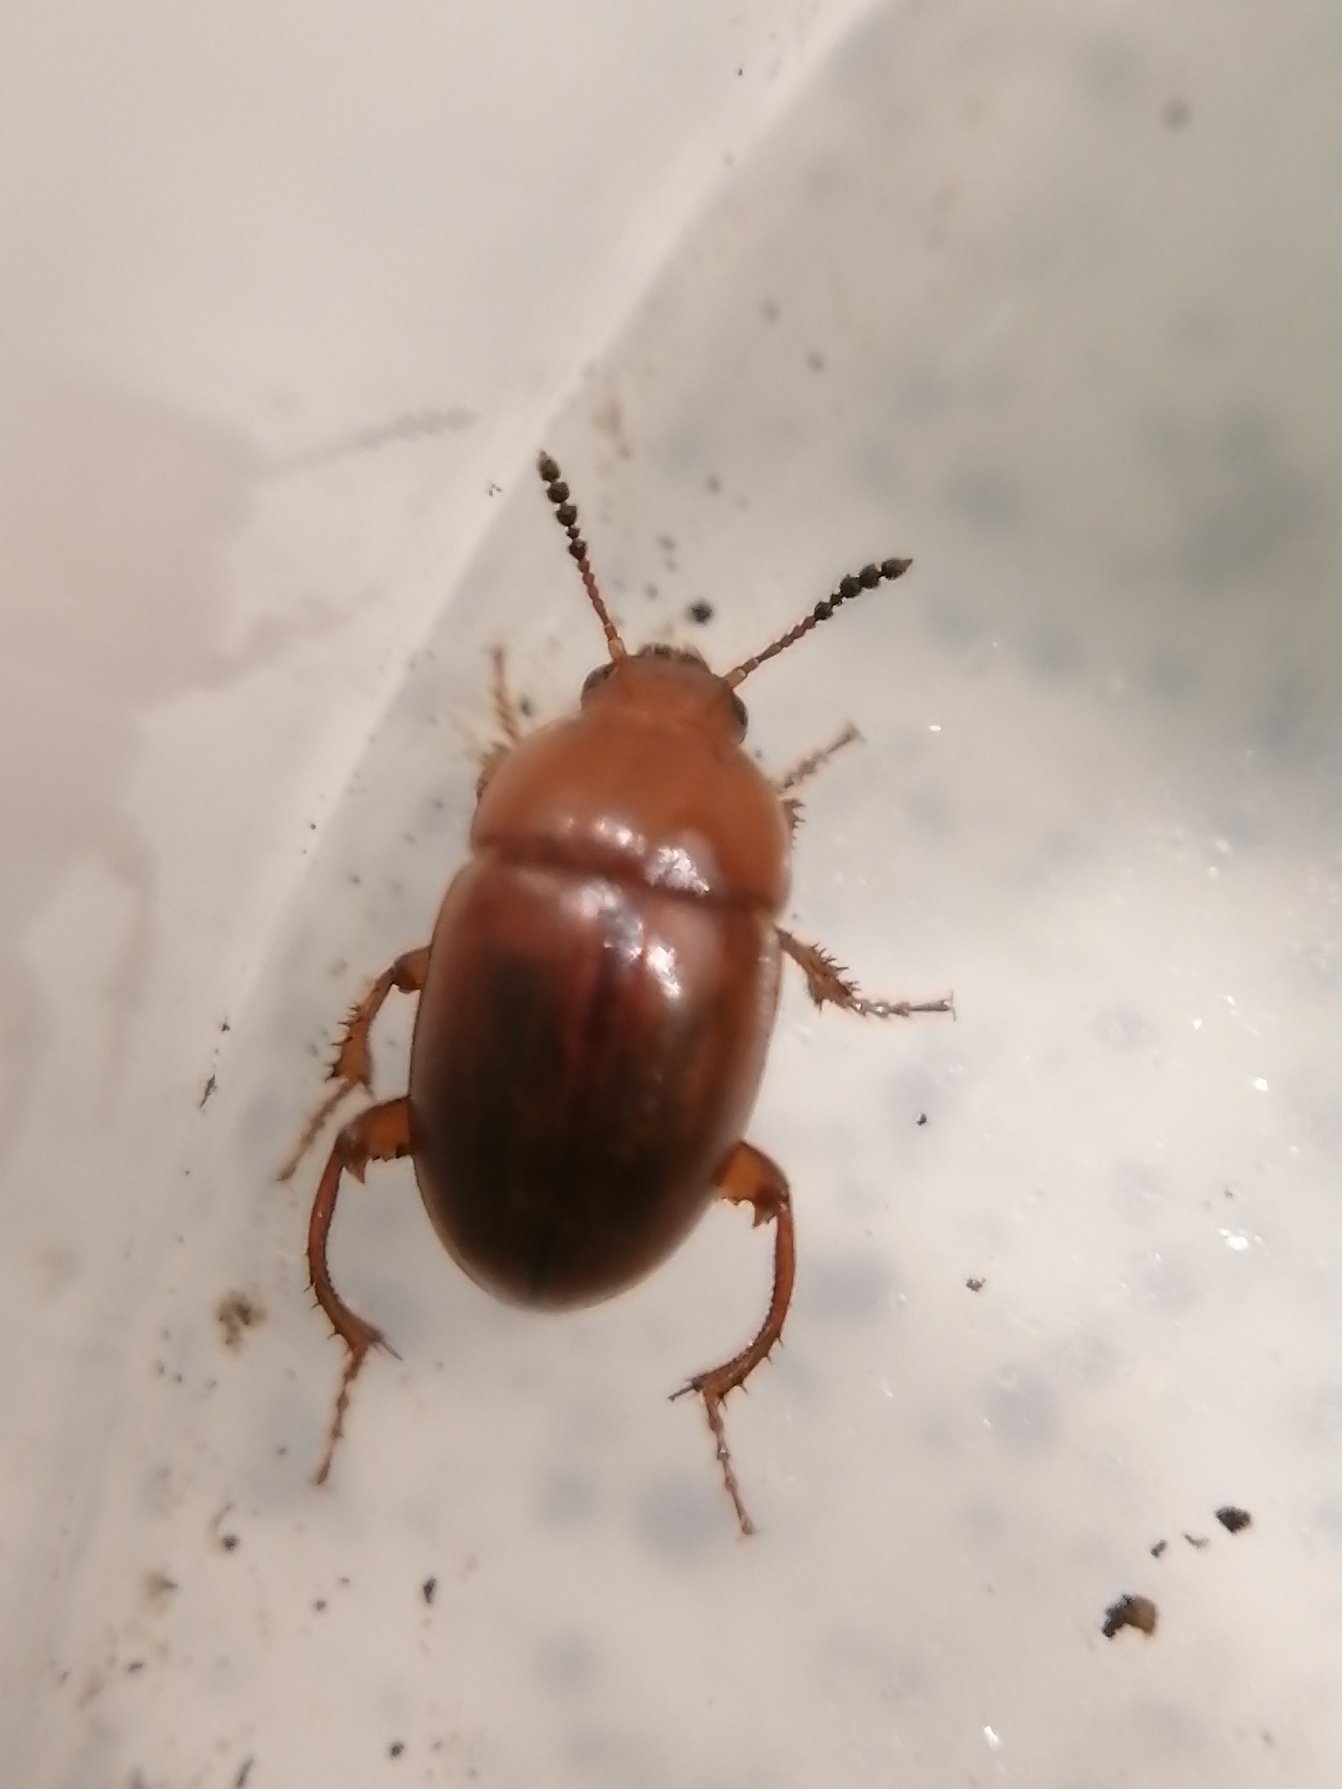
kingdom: Animalia
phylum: Arthropoda
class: Insecta
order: Coleoptera
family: Leiodidae
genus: Leiodes
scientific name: Leiodes cinnamomea
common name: Trøffelbille
